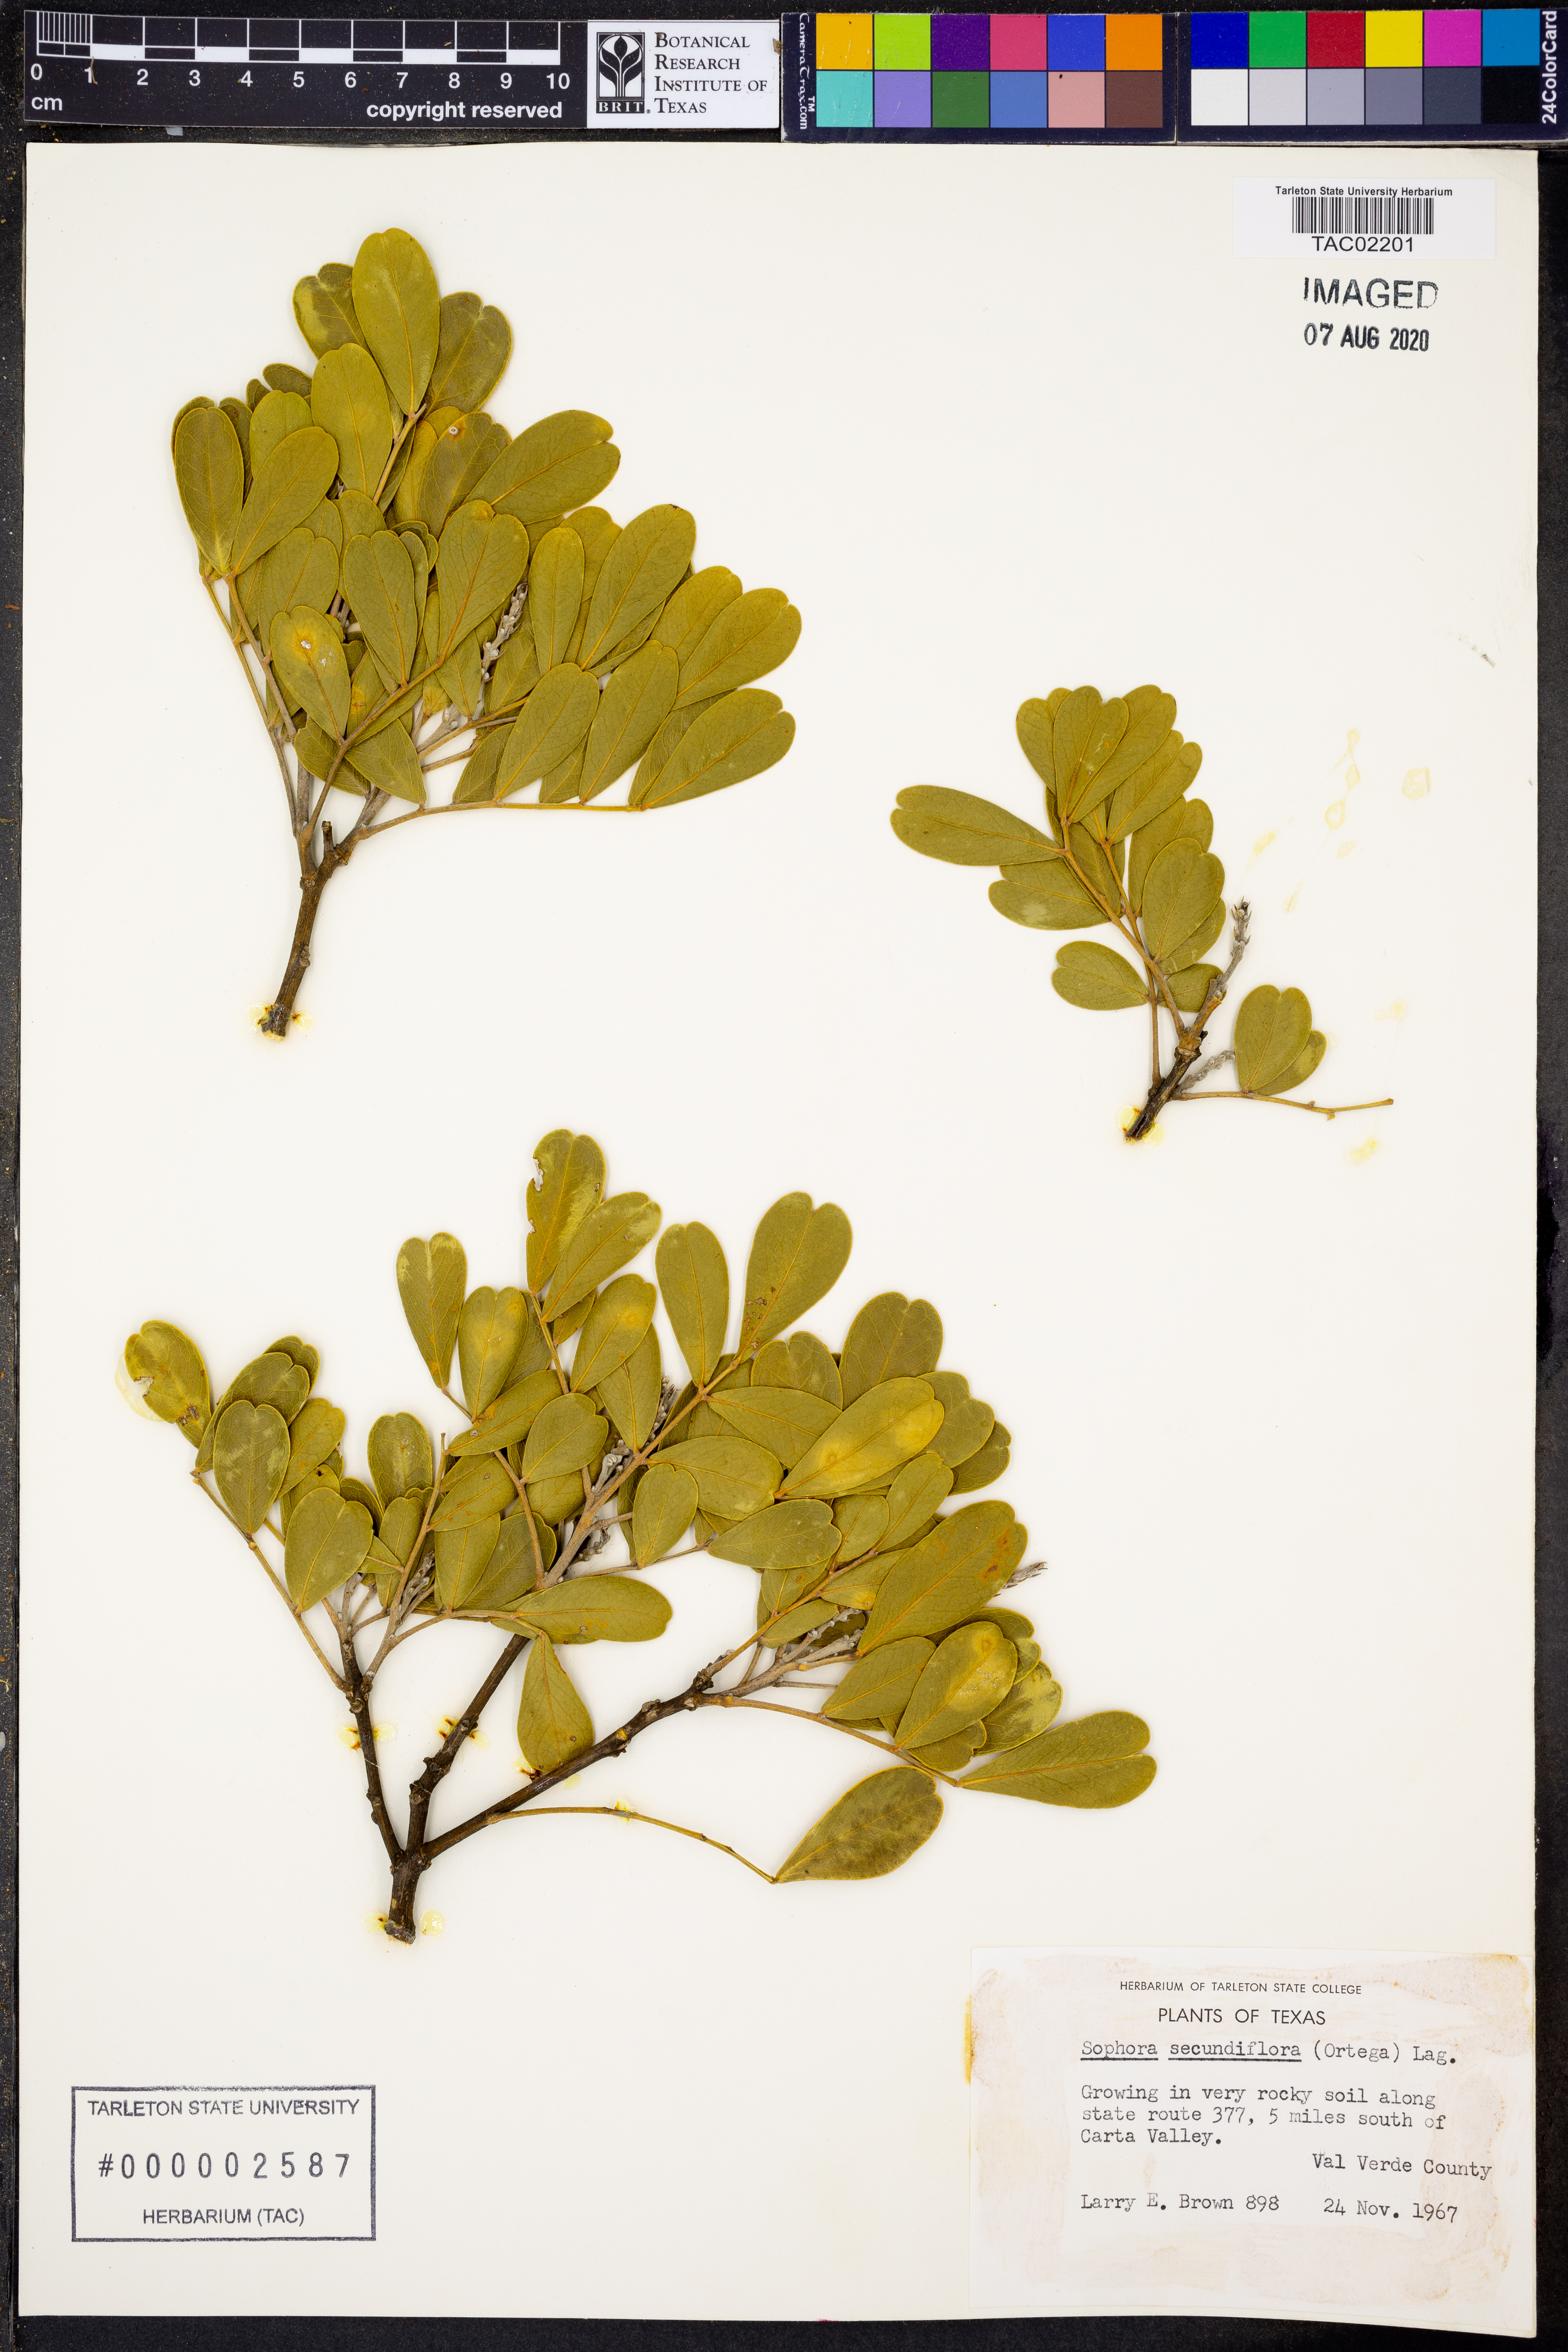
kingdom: Plantae
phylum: Tracheophyta
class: Magnoliopsida
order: Fabales
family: Fabaceae
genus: Dermatophyllum
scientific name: Dermatophyllum secundiflorum
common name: Texas-mountain-laurel
